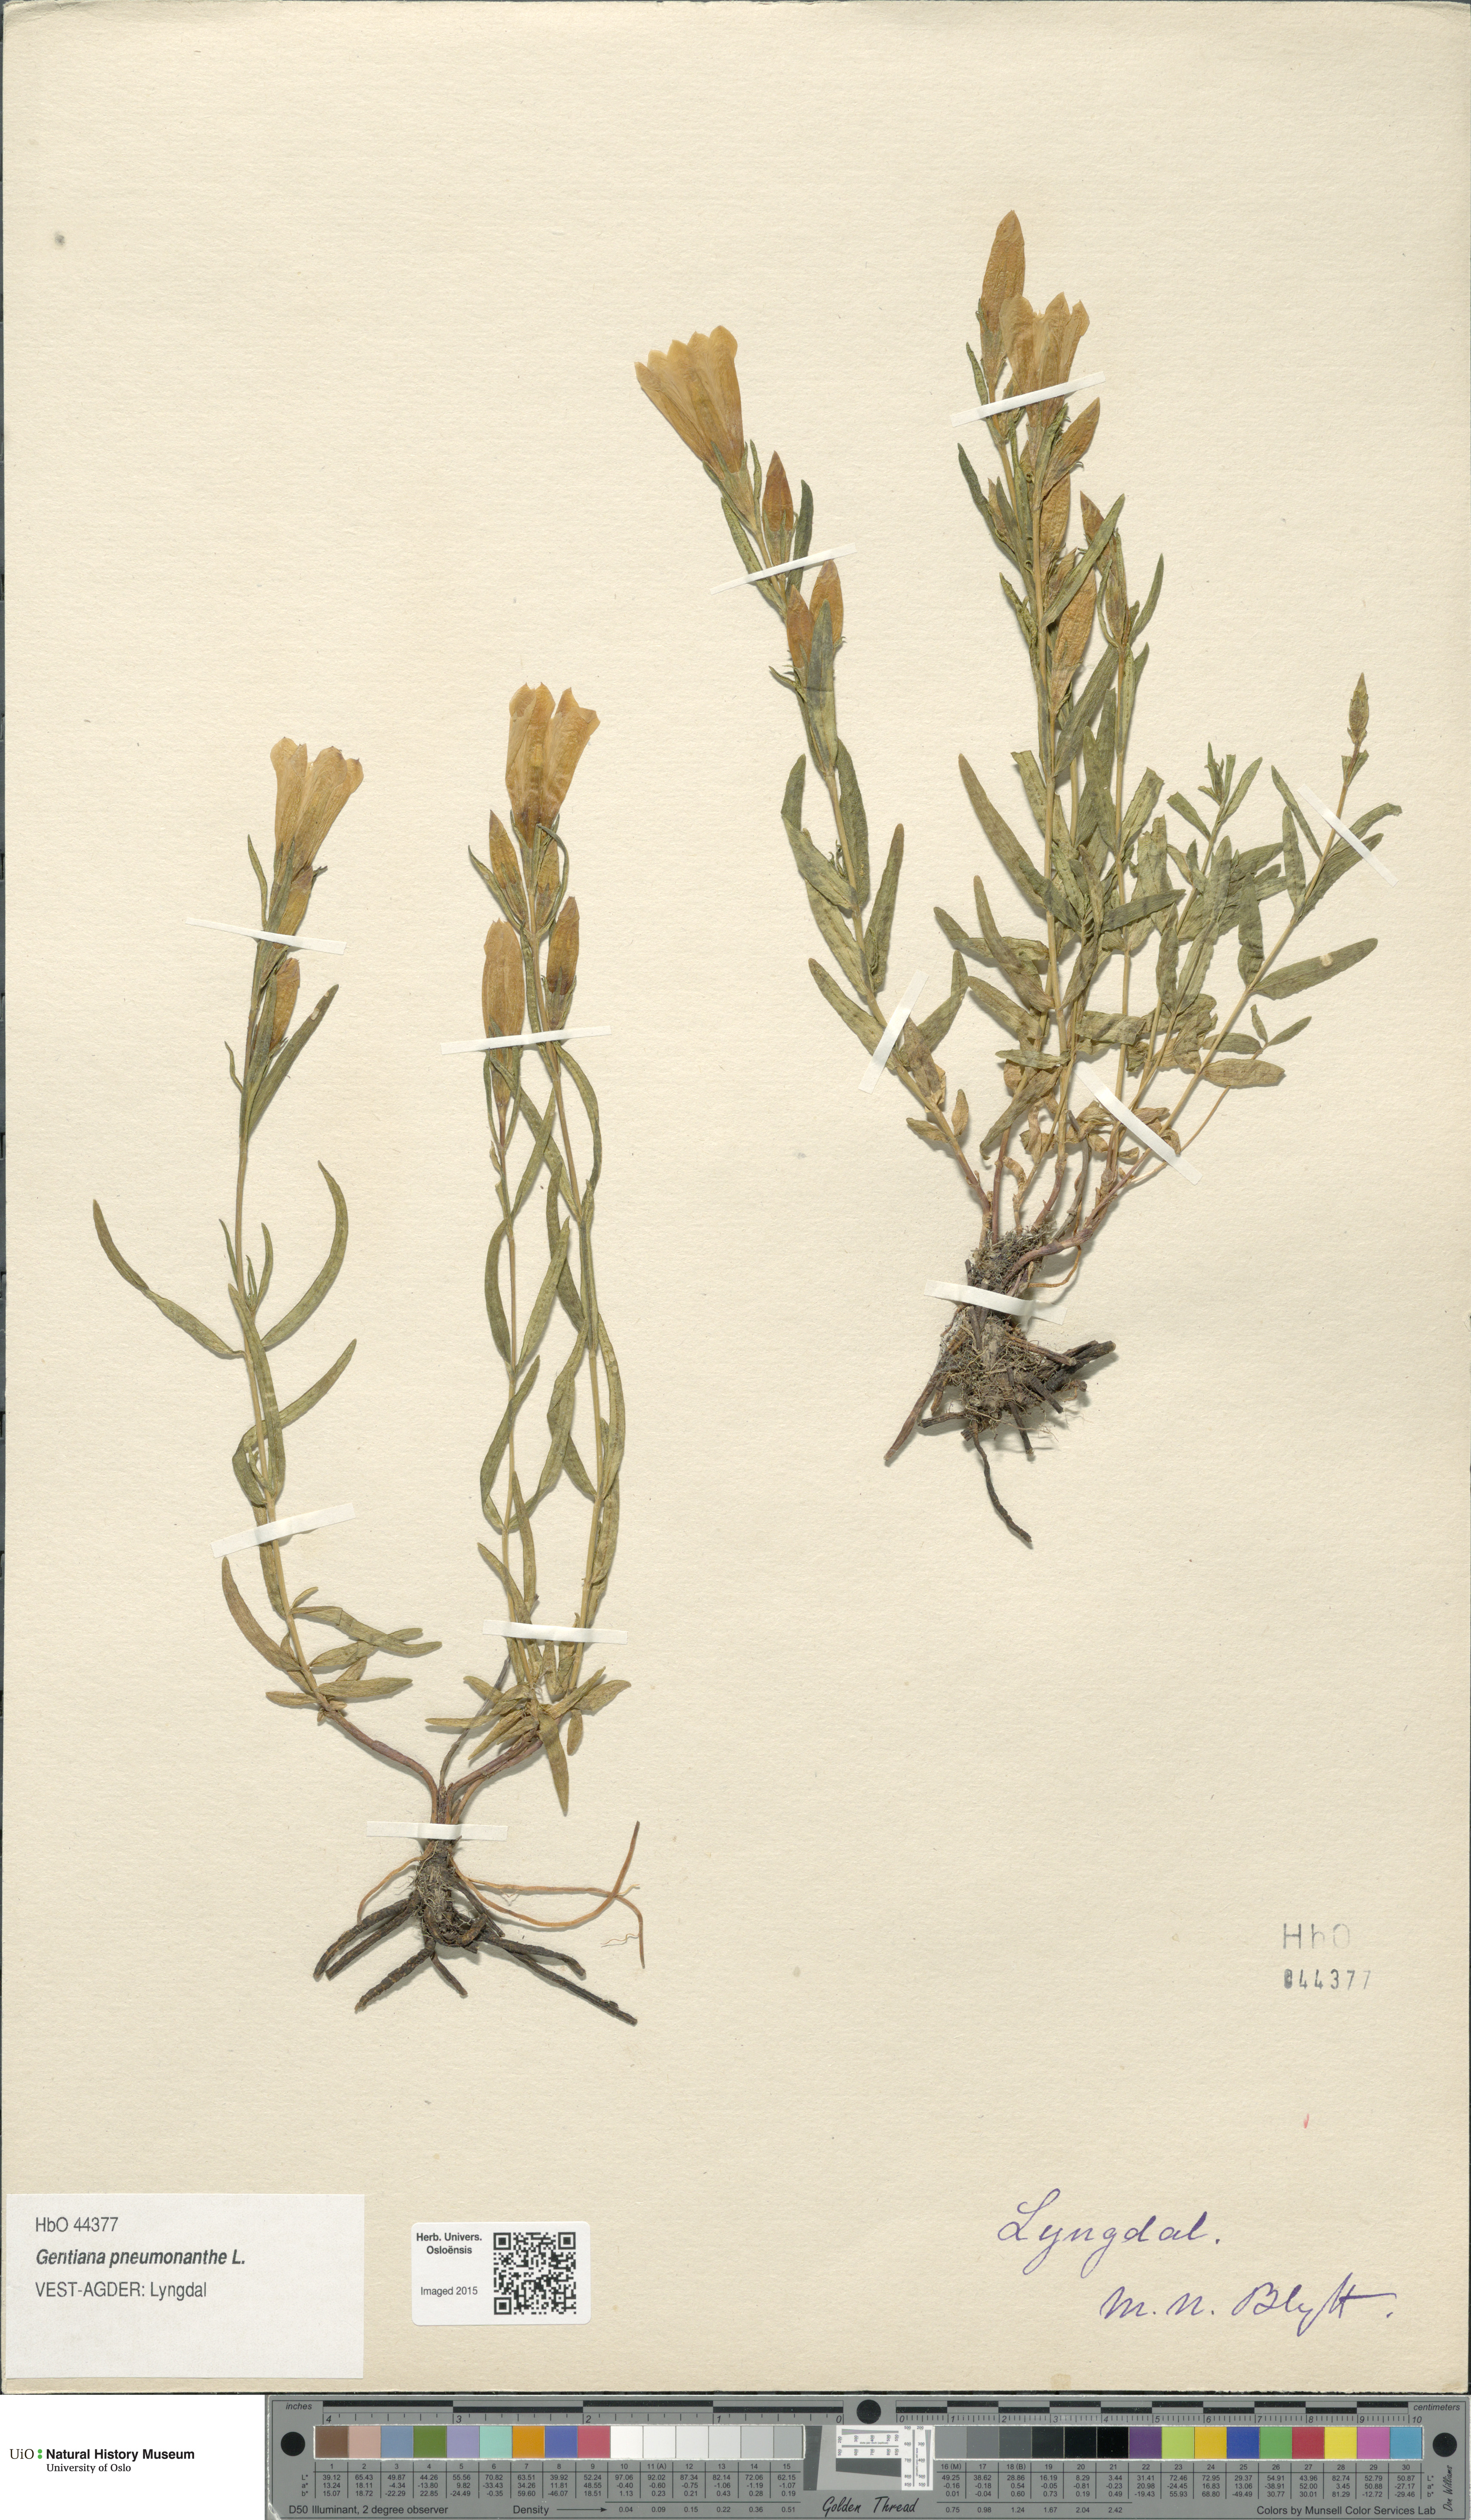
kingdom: Plantae
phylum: Tracheophyta
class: Magnoliopsida
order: Gentianales
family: Gentianaceae
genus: Gentiana
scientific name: Gentiana pneumonanthe
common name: Marsh gentian
